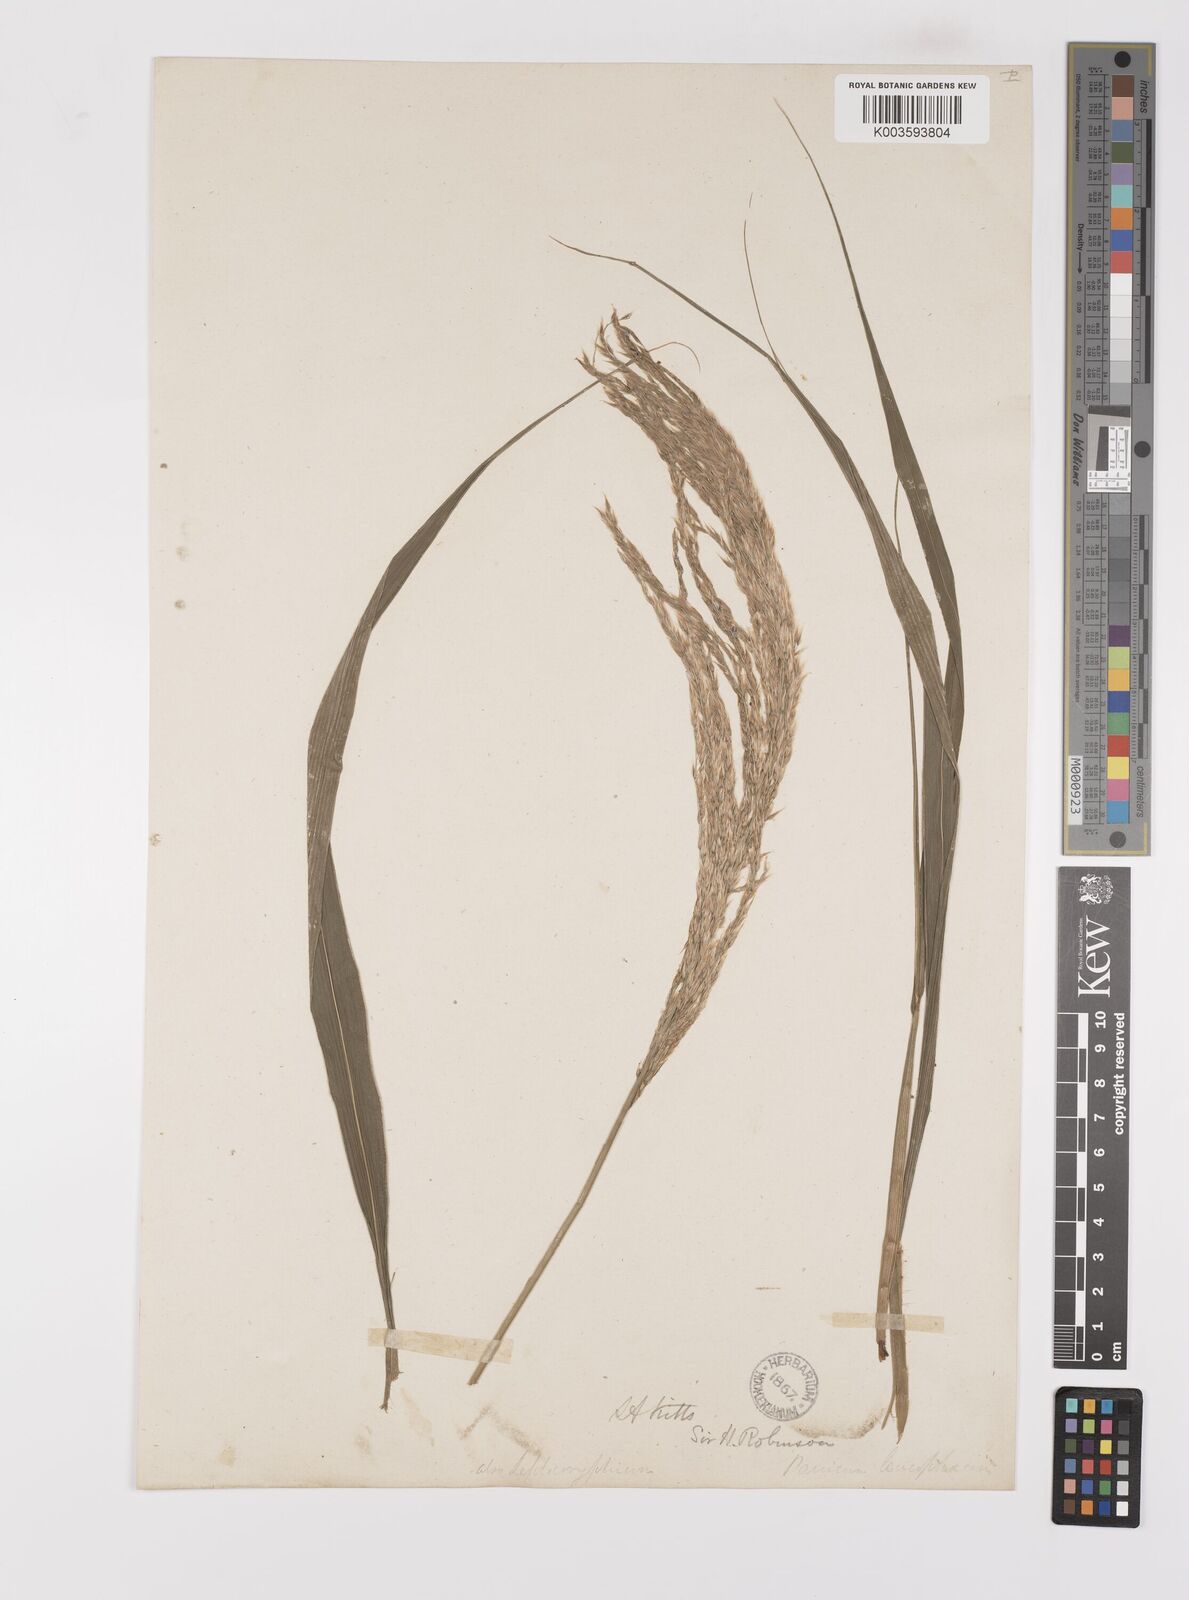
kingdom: Plantae
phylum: Tracheophyta
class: Liliopsida
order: Poales
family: Poaceae
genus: Digitaria
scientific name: Digitaria insularis
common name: Sourgrass
